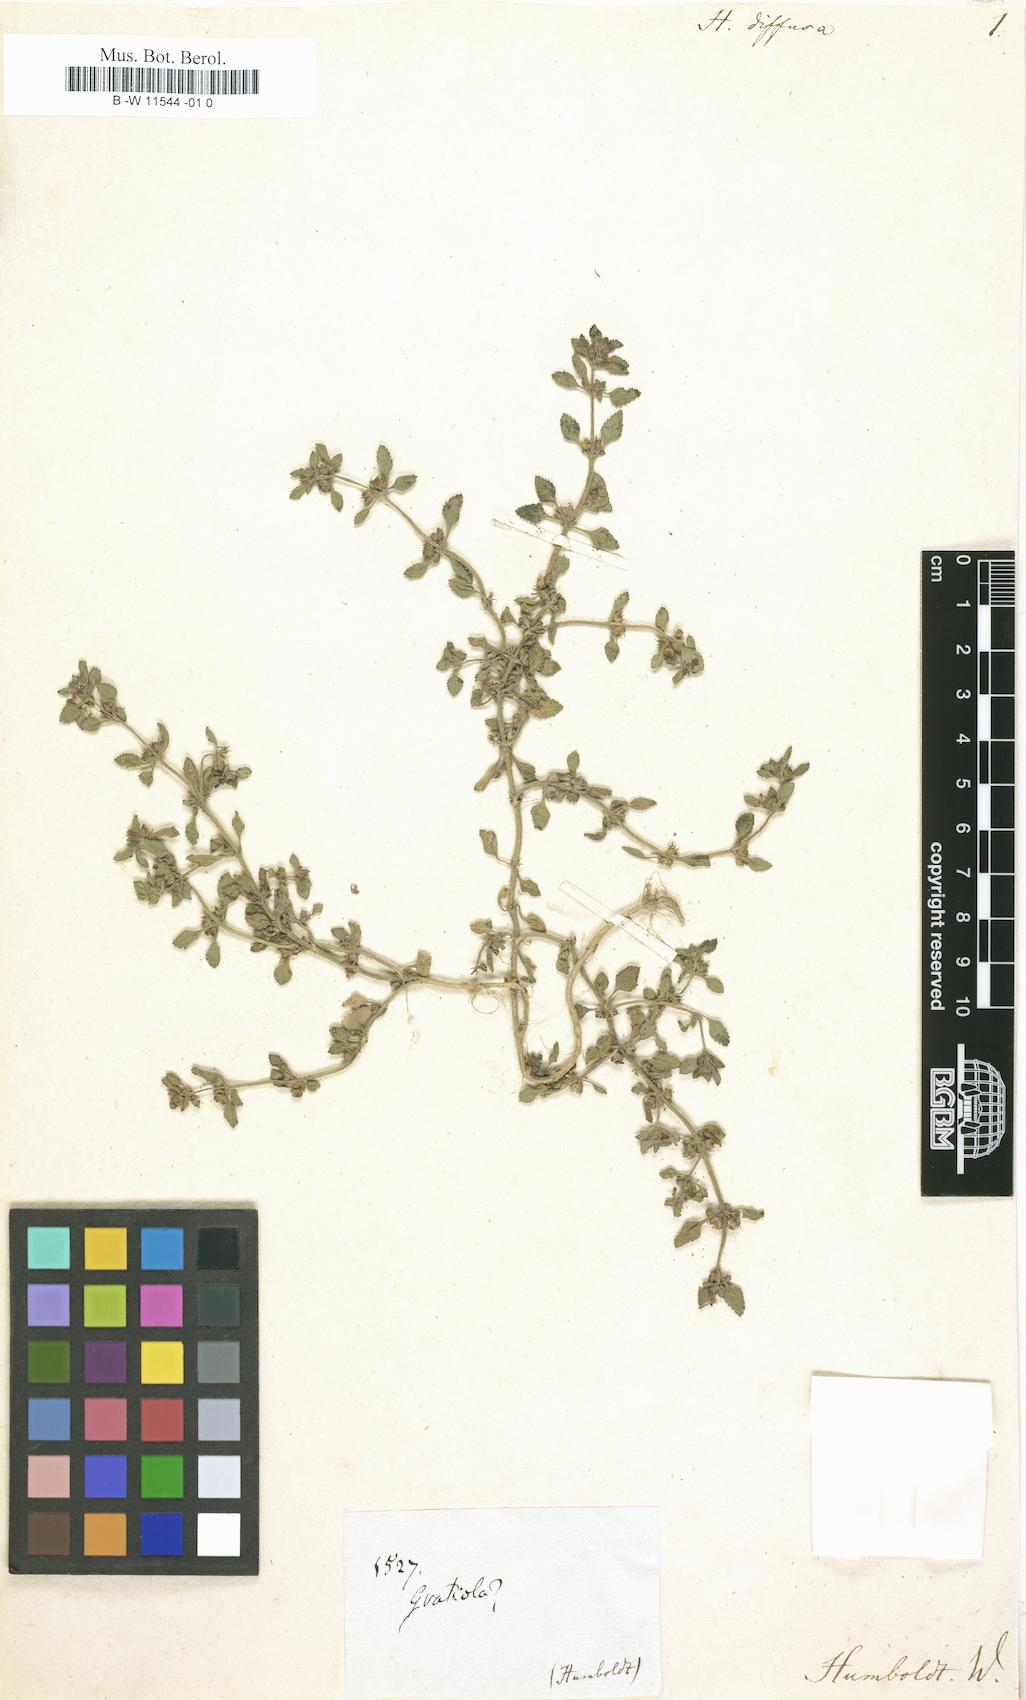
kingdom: Plantae
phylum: Tracheophyta
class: Magnoliopsida
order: Lamiales
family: Plantaginaceae
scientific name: Plantaginaceae
